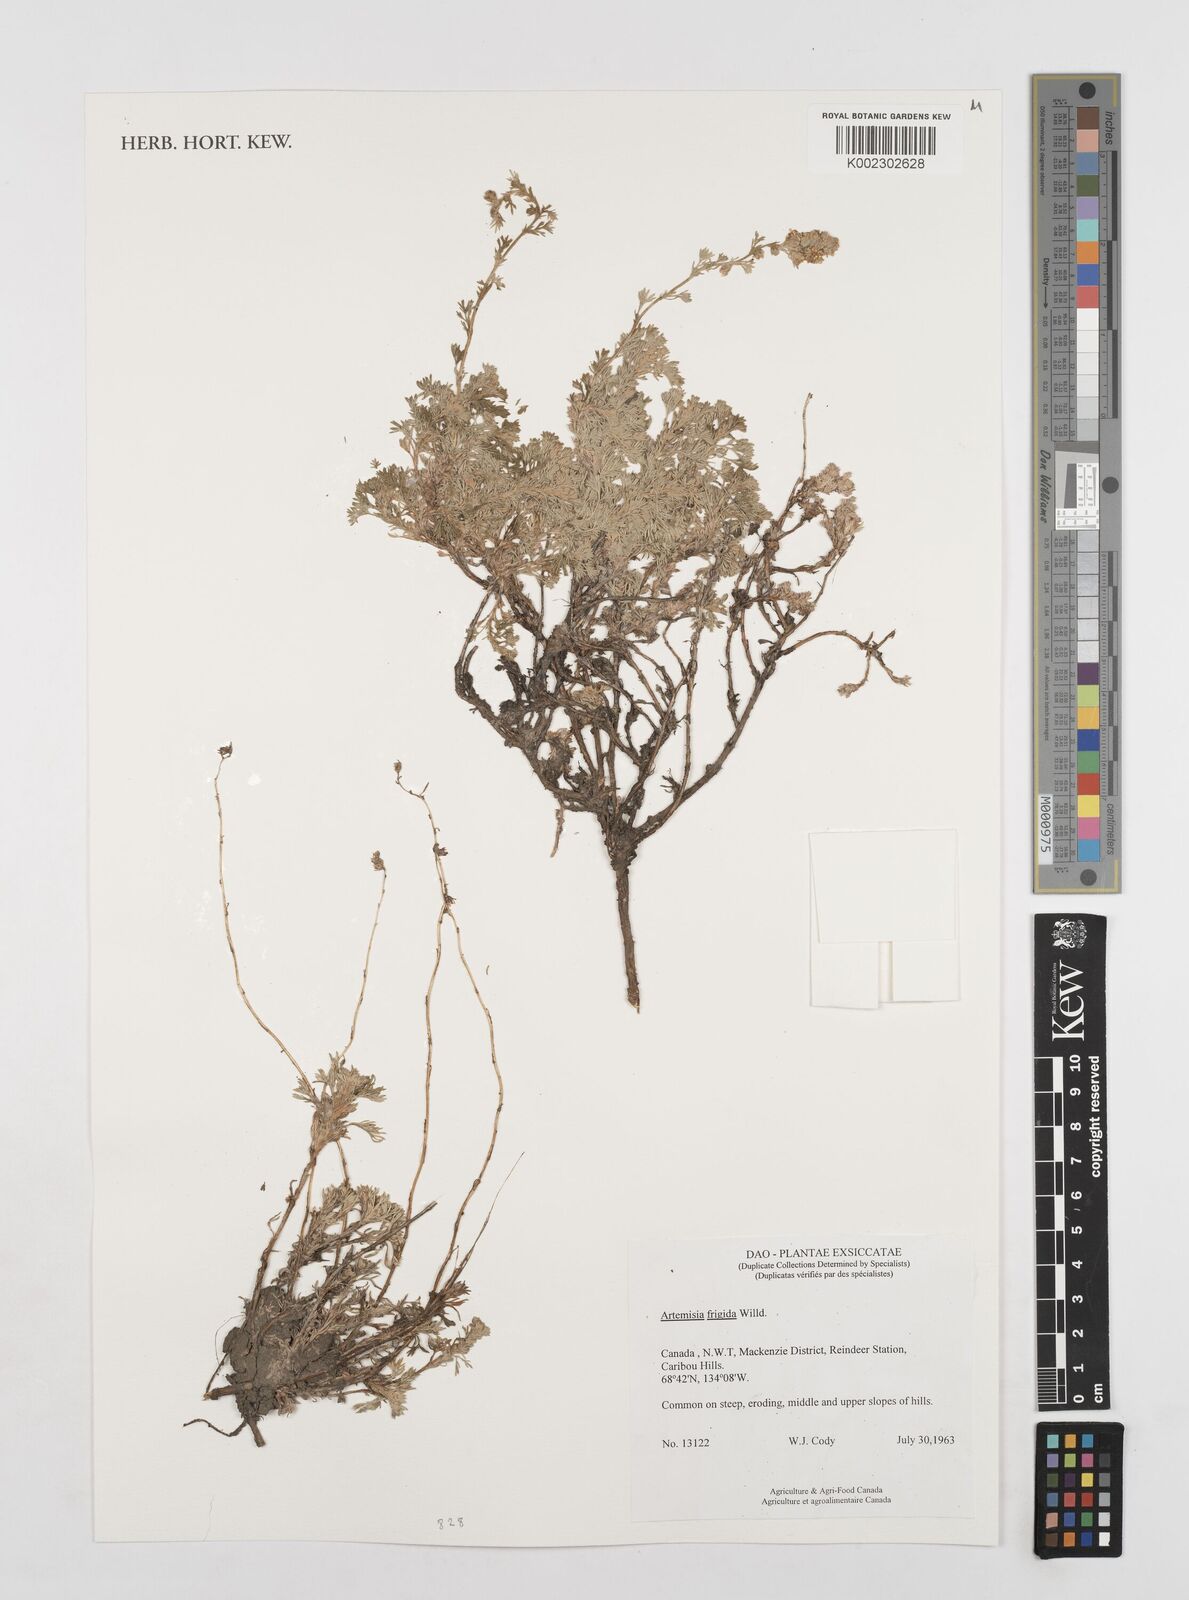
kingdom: Plantae
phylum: Tracheophyta
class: Magnoliopsida
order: Asterales
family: Asteraceae
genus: Artemisia
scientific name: Artemisia frigida
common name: Prairie sagewort
